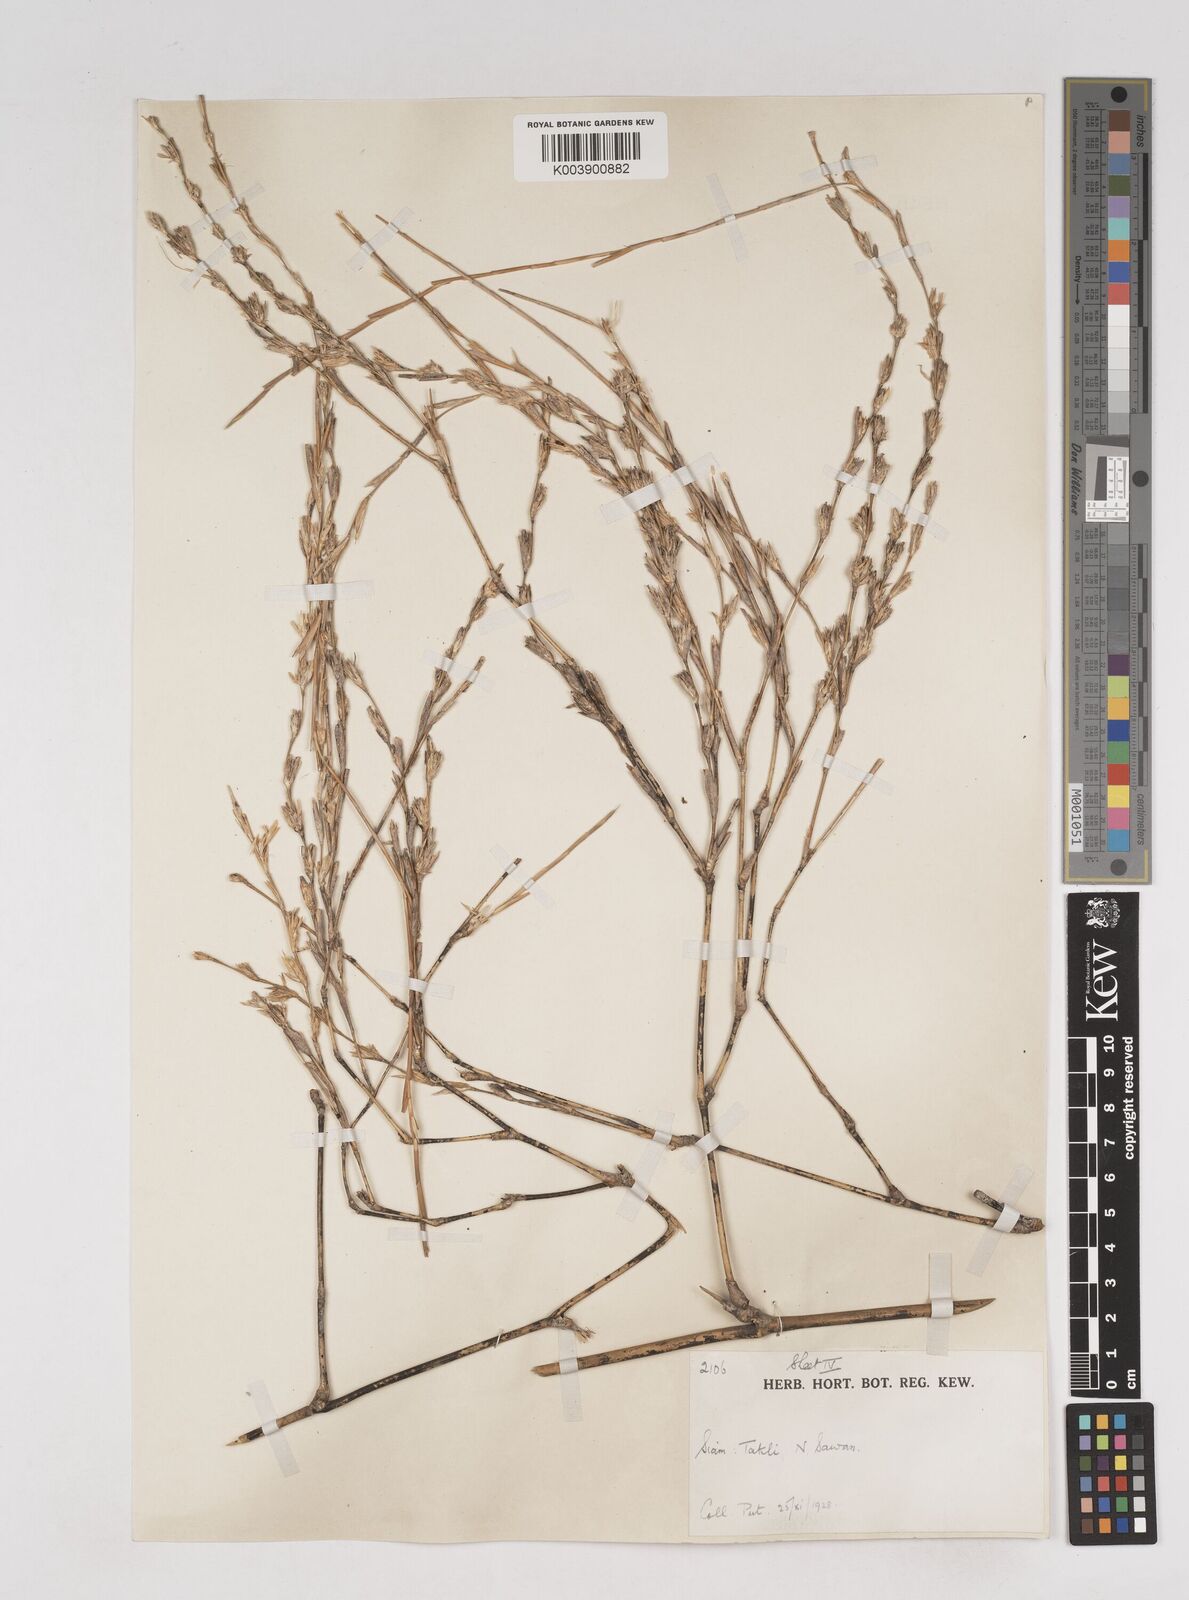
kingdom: Plantae
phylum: Tracheophyta
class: Liliopsida
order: Poales
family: Poaceae
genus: Thyrsostachys
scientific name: Thyrsostachys
